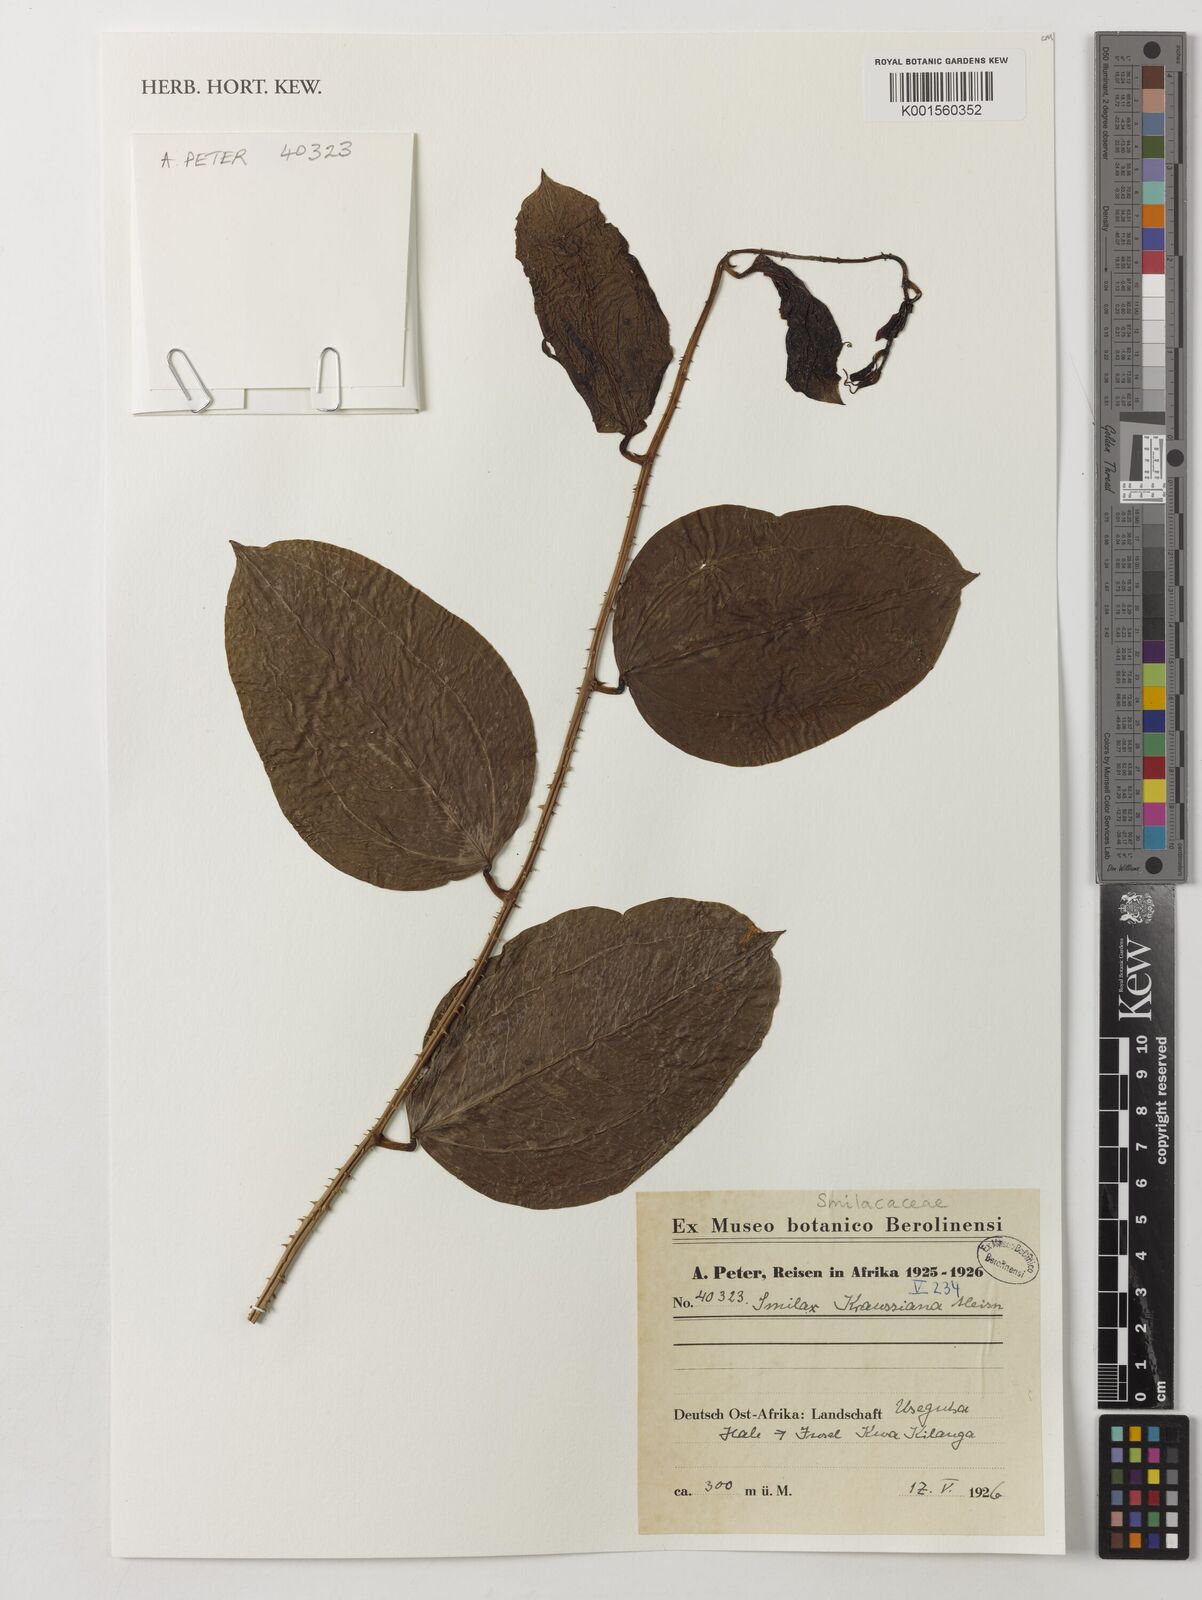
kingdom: Plantae
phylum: Tracheophyta
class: Liliopsida
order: Liliales
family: Smilacaceae
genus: Smilax
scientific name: Smilax anceps
